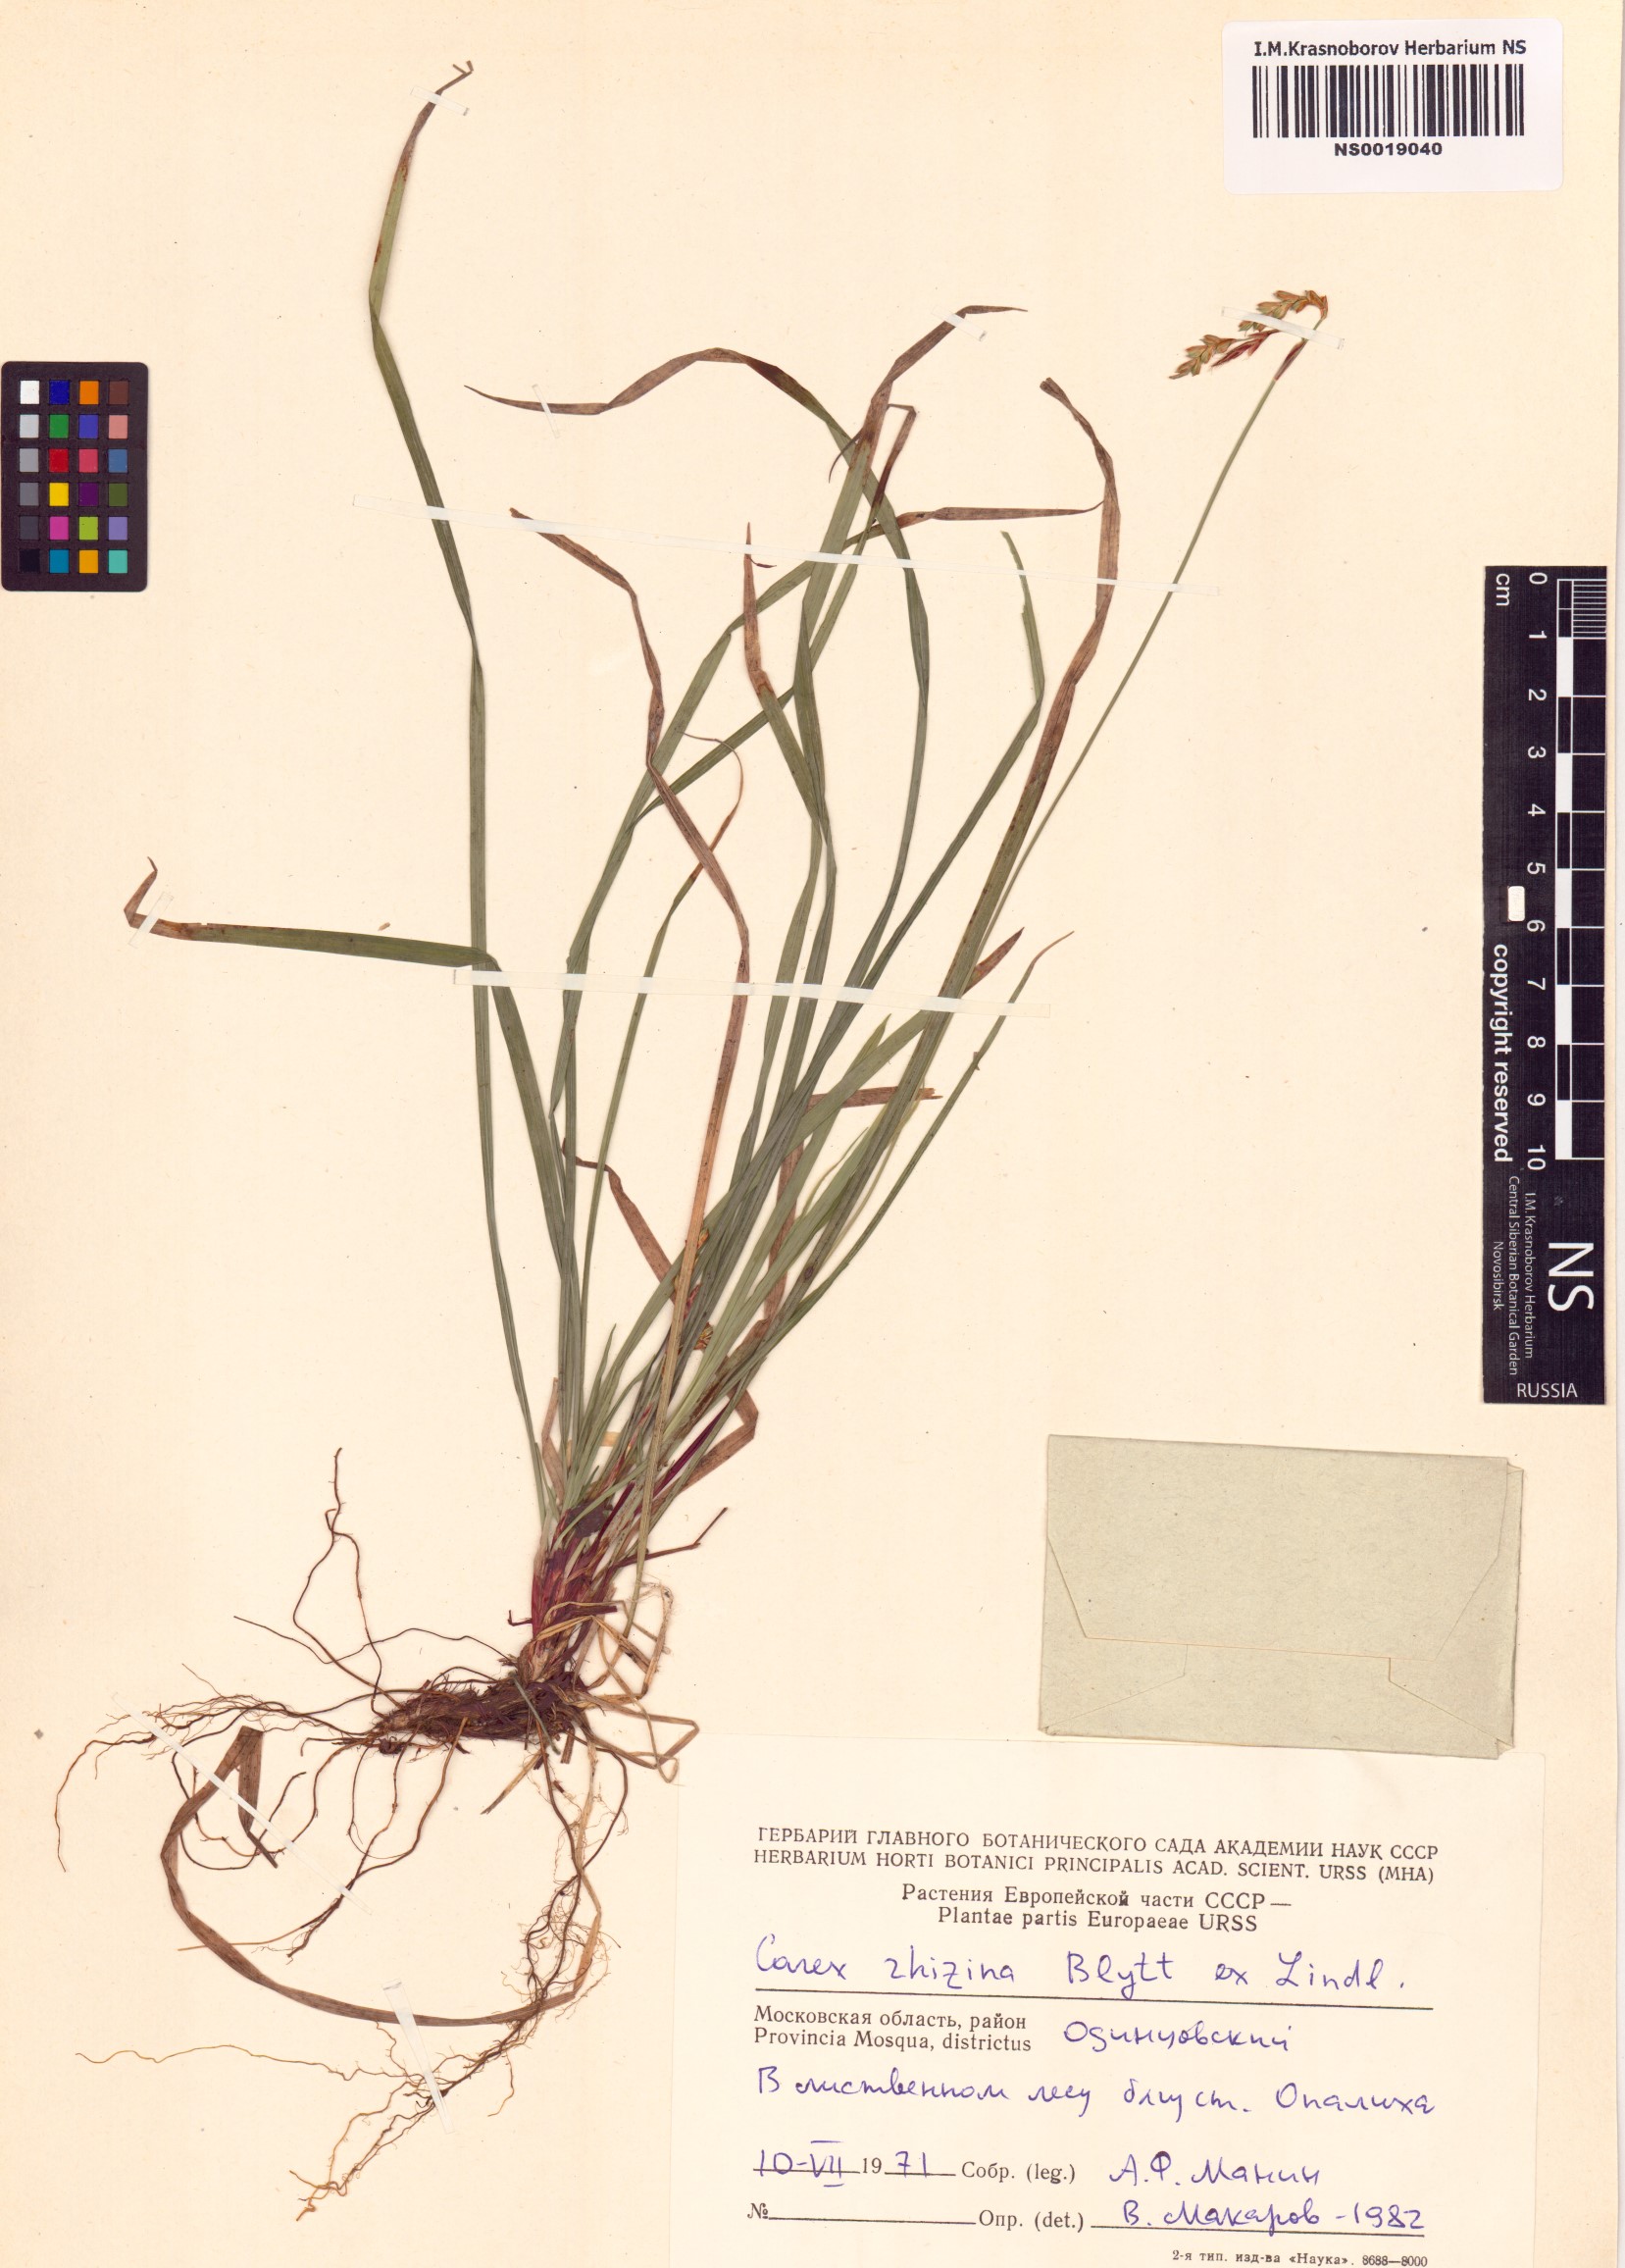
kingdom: Plantae
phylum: Tracheophyta
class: Liliopsida
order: Poales
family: Cyperaceae
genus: Carex
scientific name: Carex rhizina
